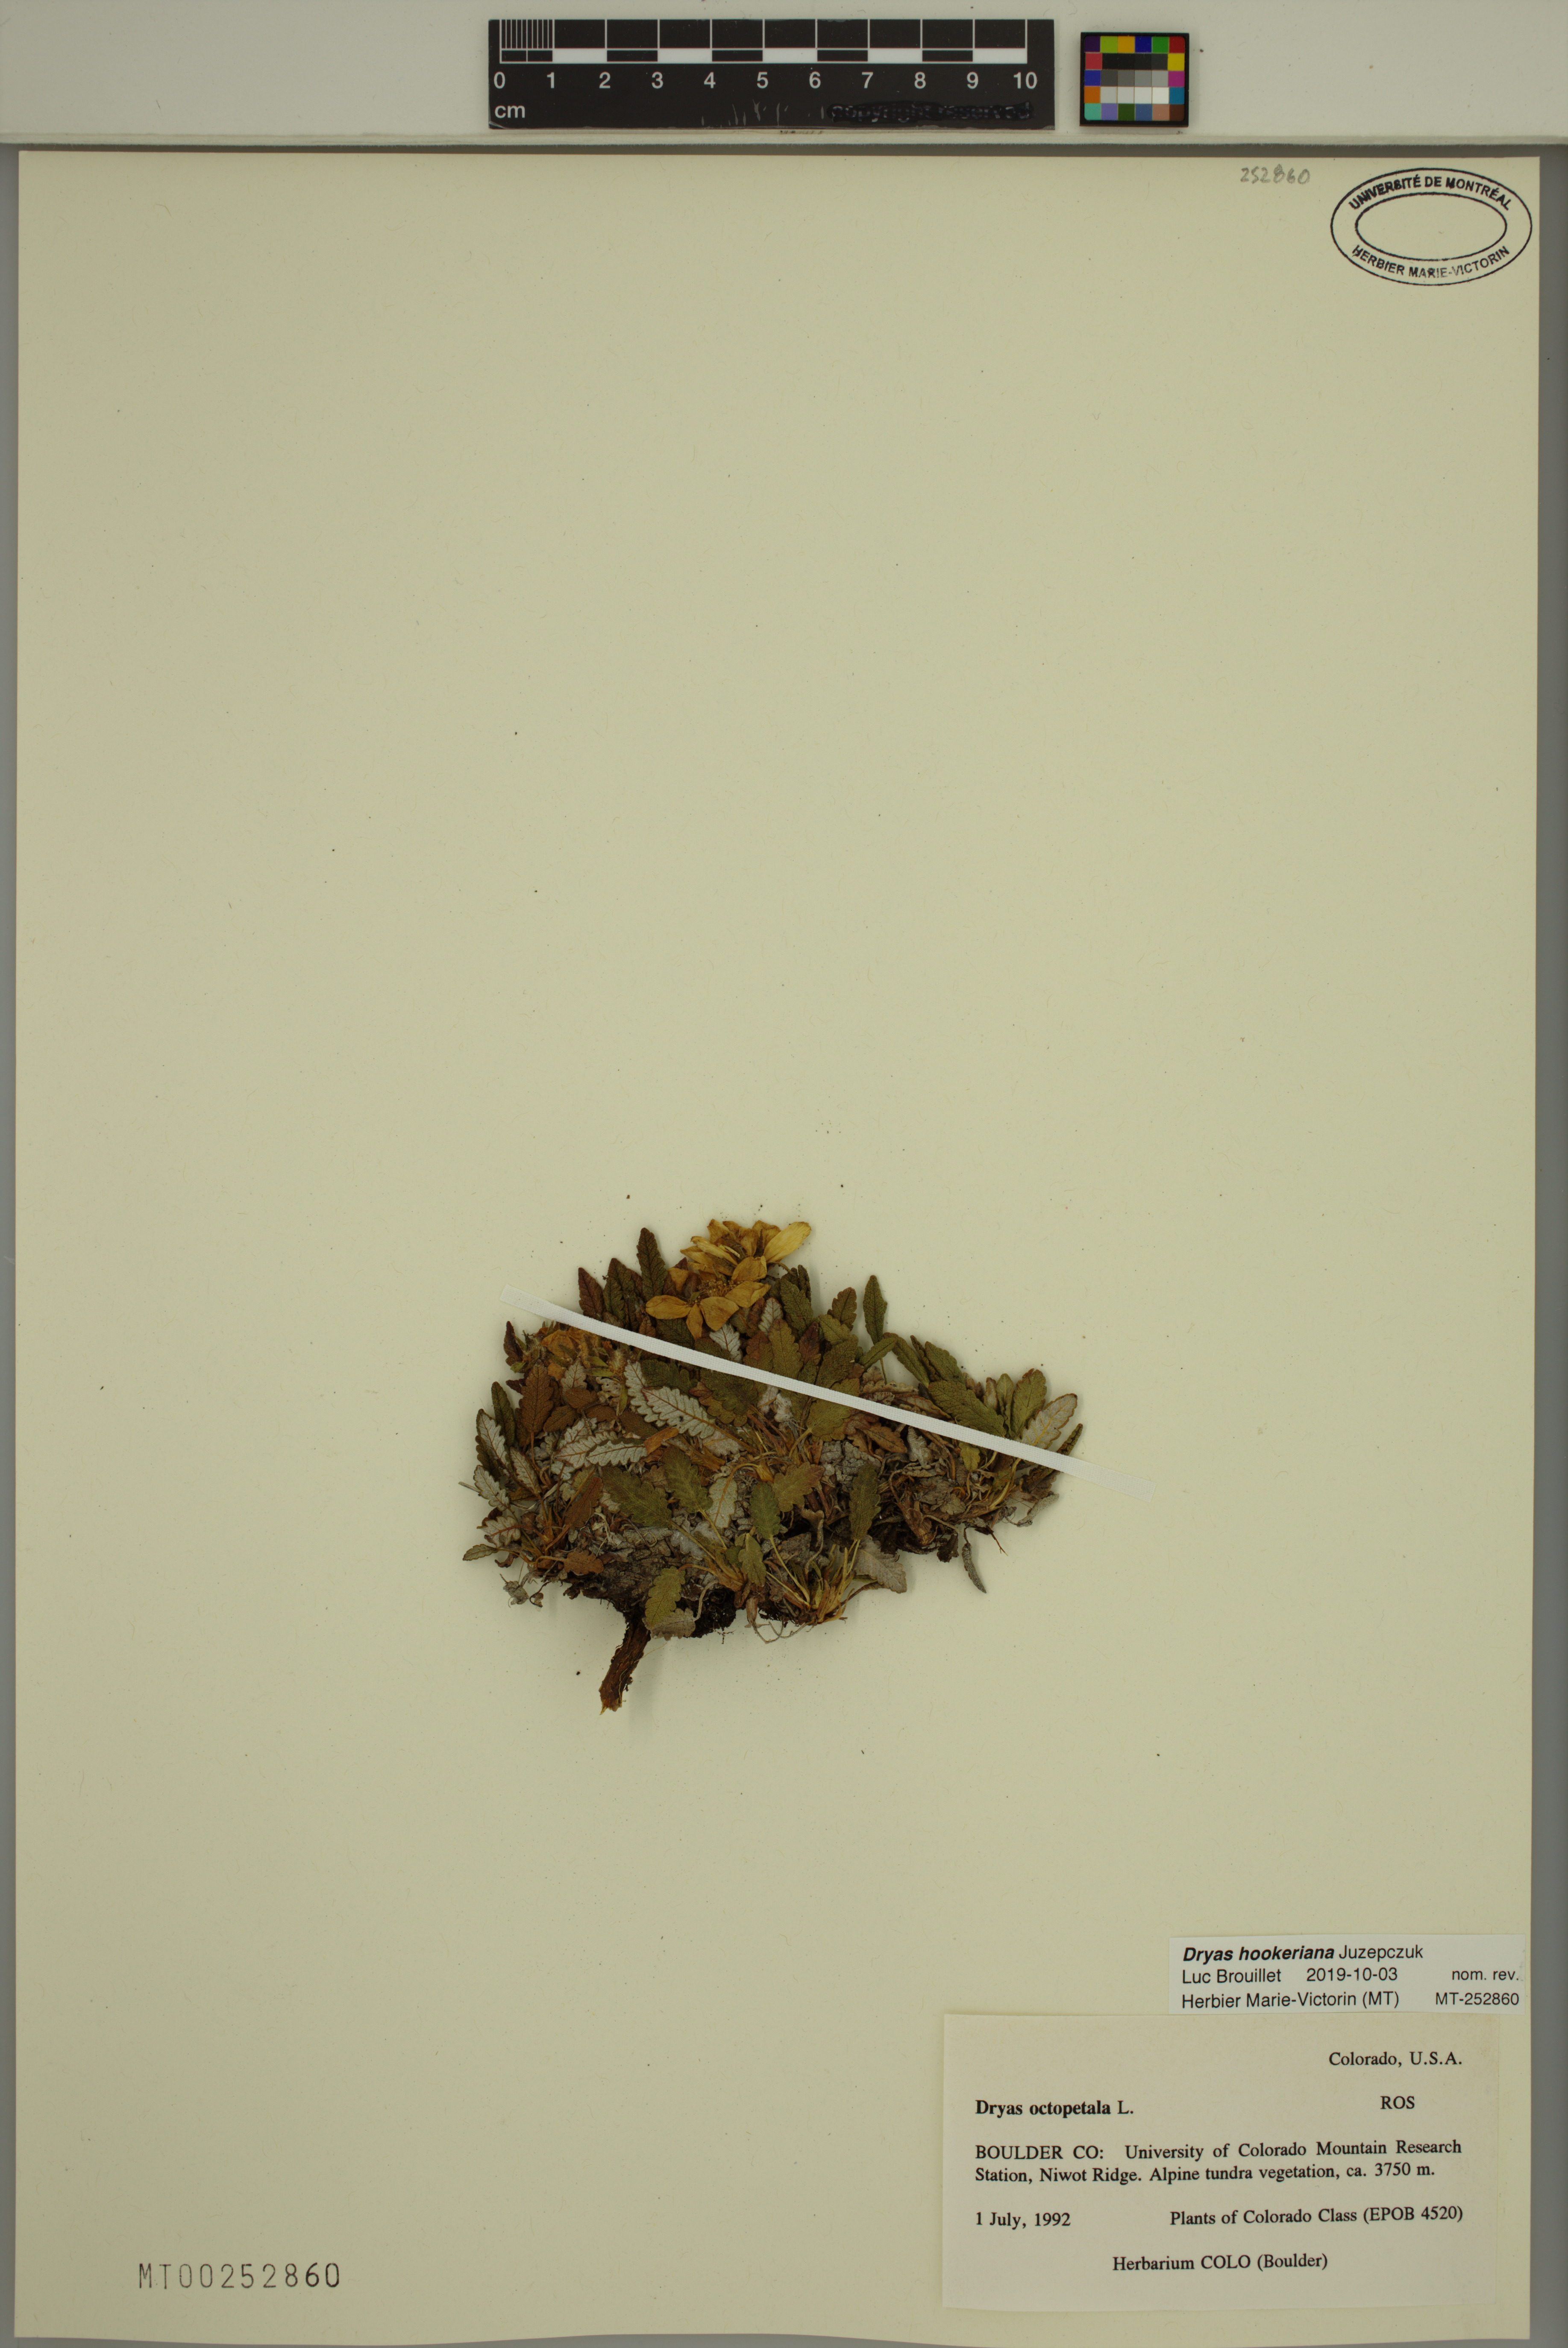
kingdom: Plantae
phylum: Tracheophyta
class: Magnoliopsida
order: Rosales
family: Rosaceae
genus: Dryas
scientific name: Dryas octopetala
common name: Eight-petal mountain-avens
